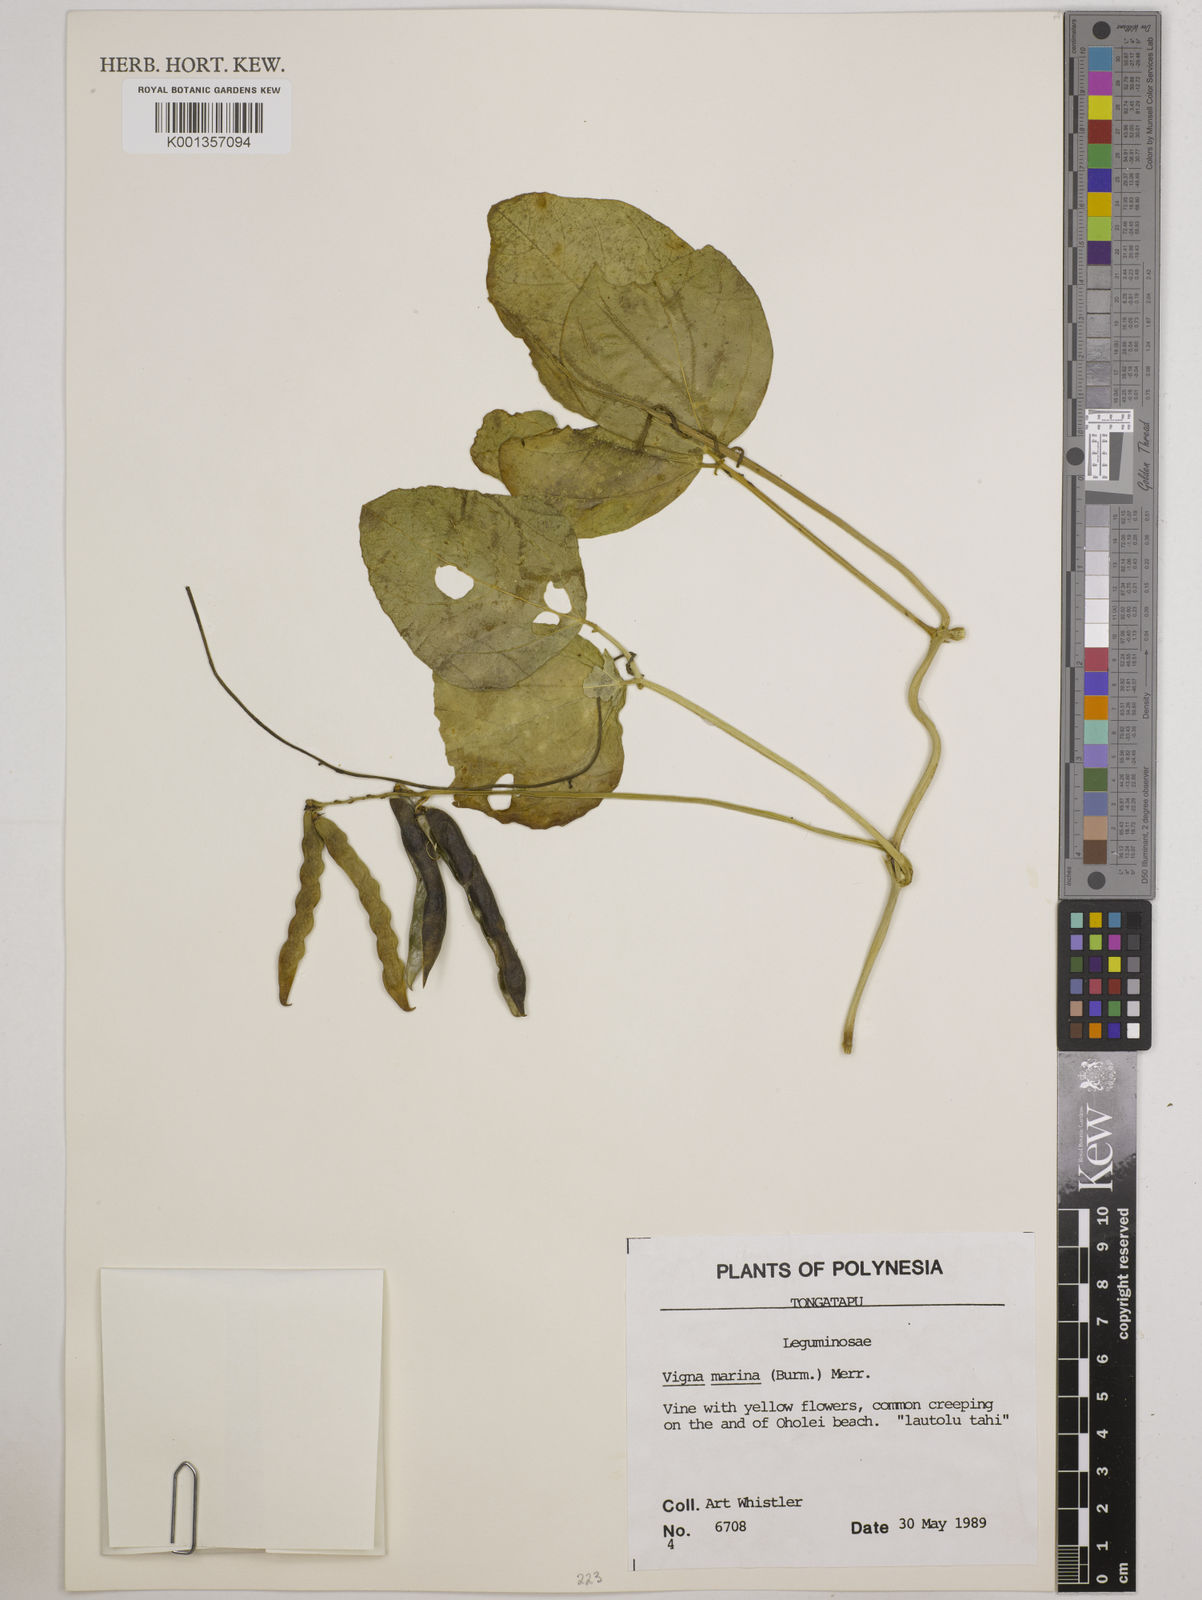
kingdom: Plantae
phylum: Tracheophyta
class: Magnoliopsida
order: Fabales
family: Fabaceae
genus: Vigna
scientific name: Vigna marina
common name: Dune-bean
